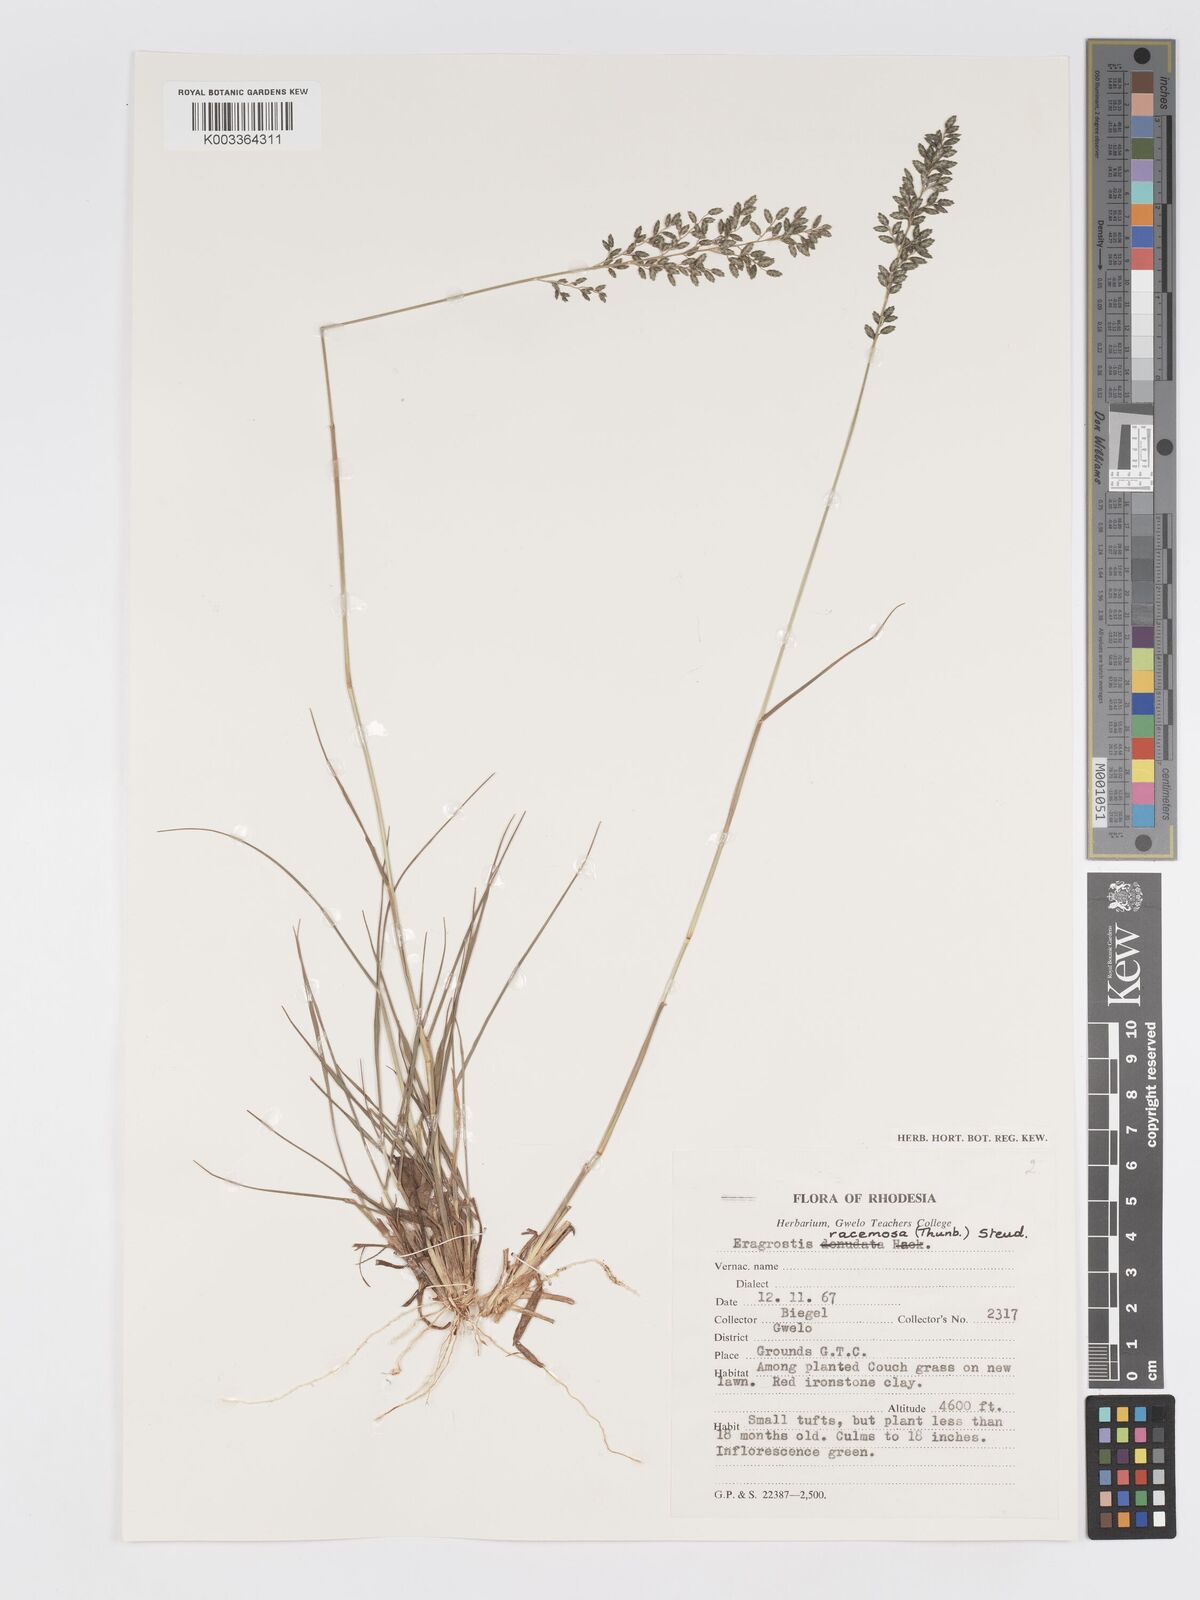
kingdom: Plantae
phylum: Tracheophyta
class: Liliopsida
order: Poales
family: Poaceae
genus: Eragrostis
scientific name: Eragrostis racemosa
